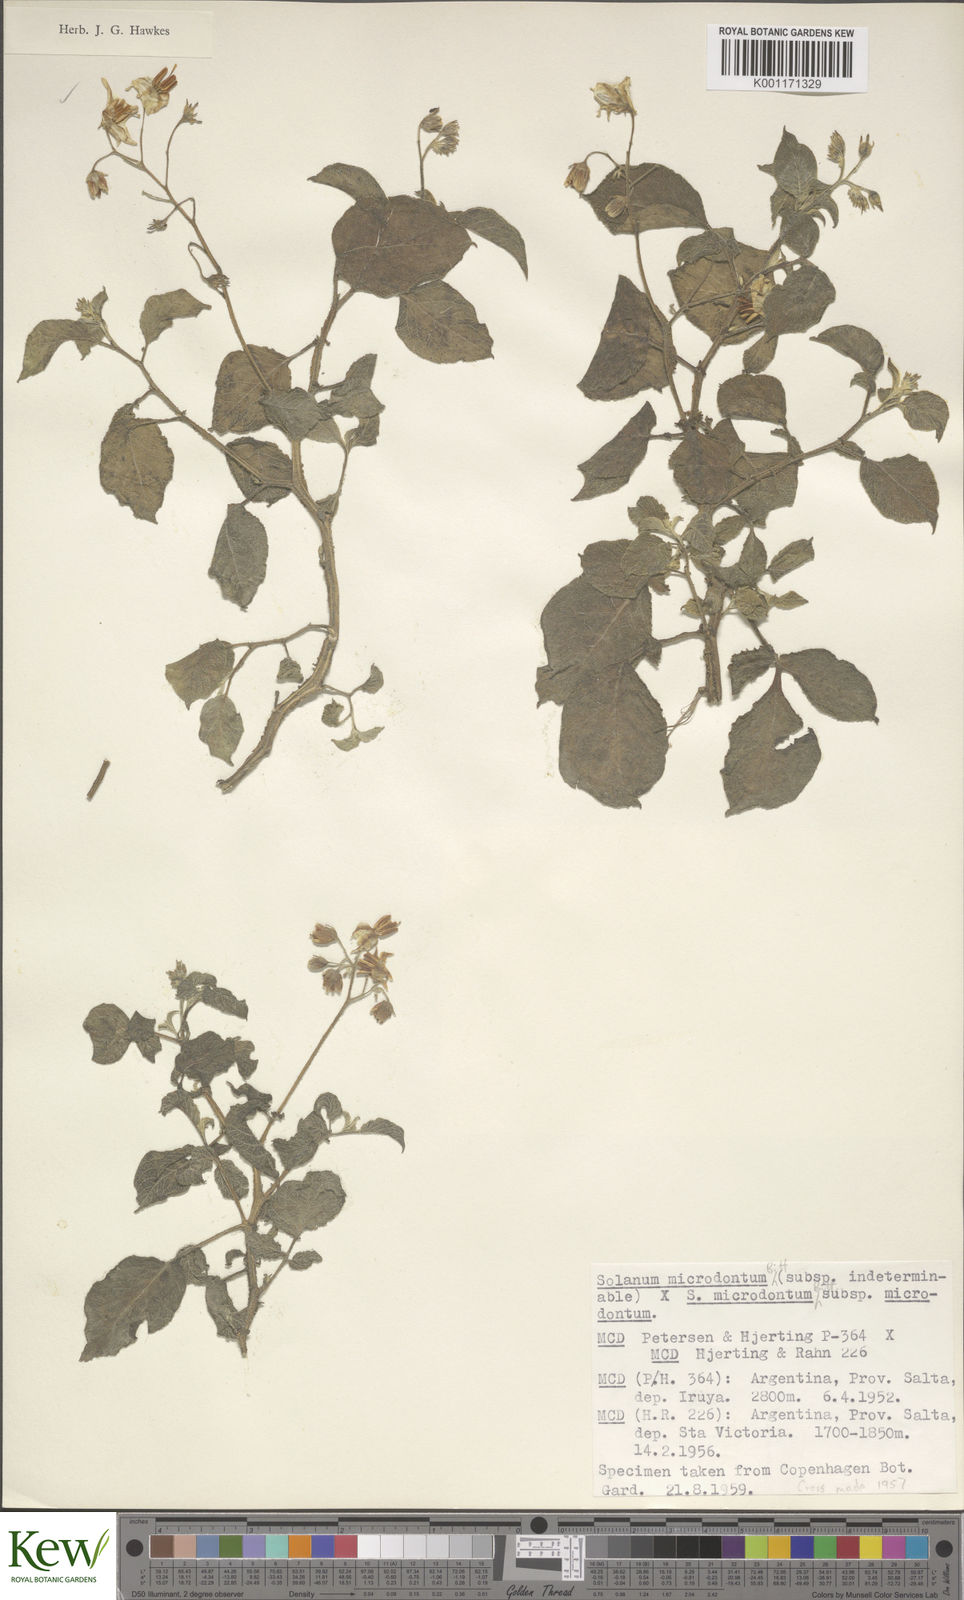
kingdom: Plantae
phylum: Tracheophyta
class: Magnoliopsida
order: Solanales
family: Solanaceae
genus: Solanum
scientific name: Solanum microdontum
